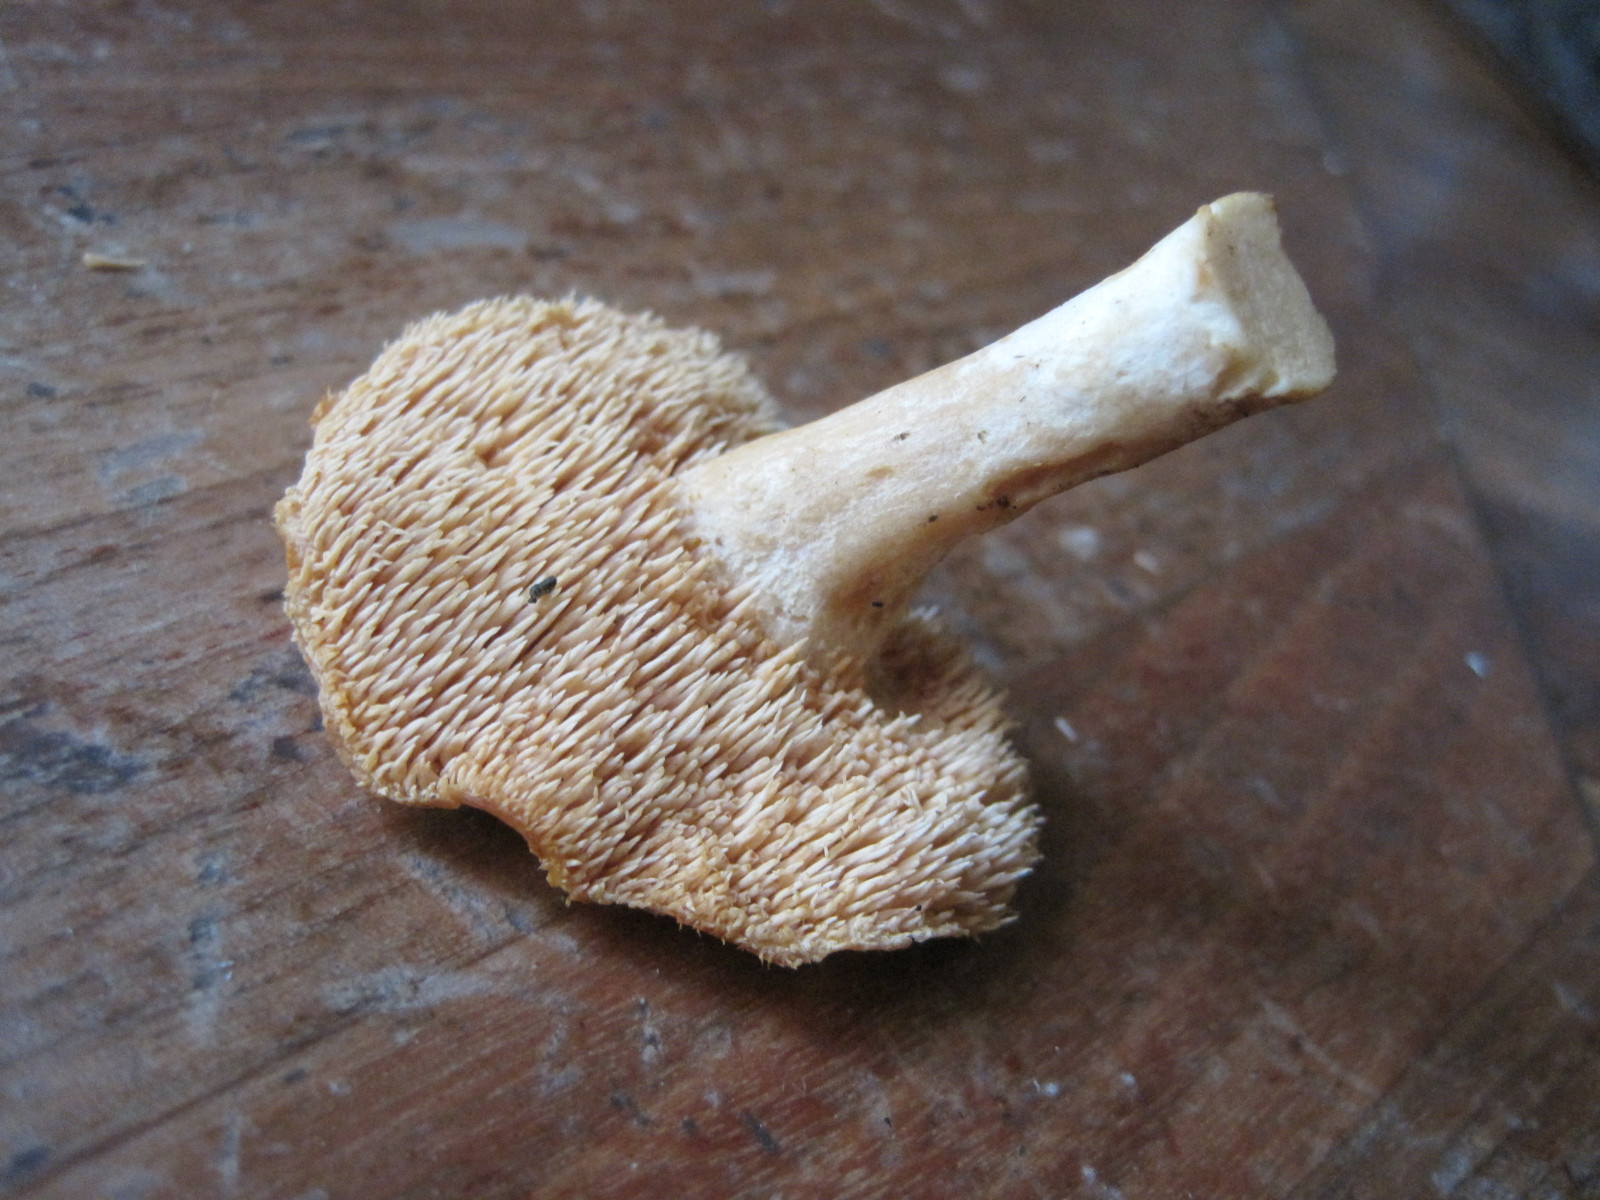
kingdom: Fungi
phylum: Basidiomycota
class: Agaricomycetes
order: Cantharellales
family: Hydnaceae
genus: Hydnum
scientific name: Hydnum umbilicatum
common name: navle-pigsvamp
